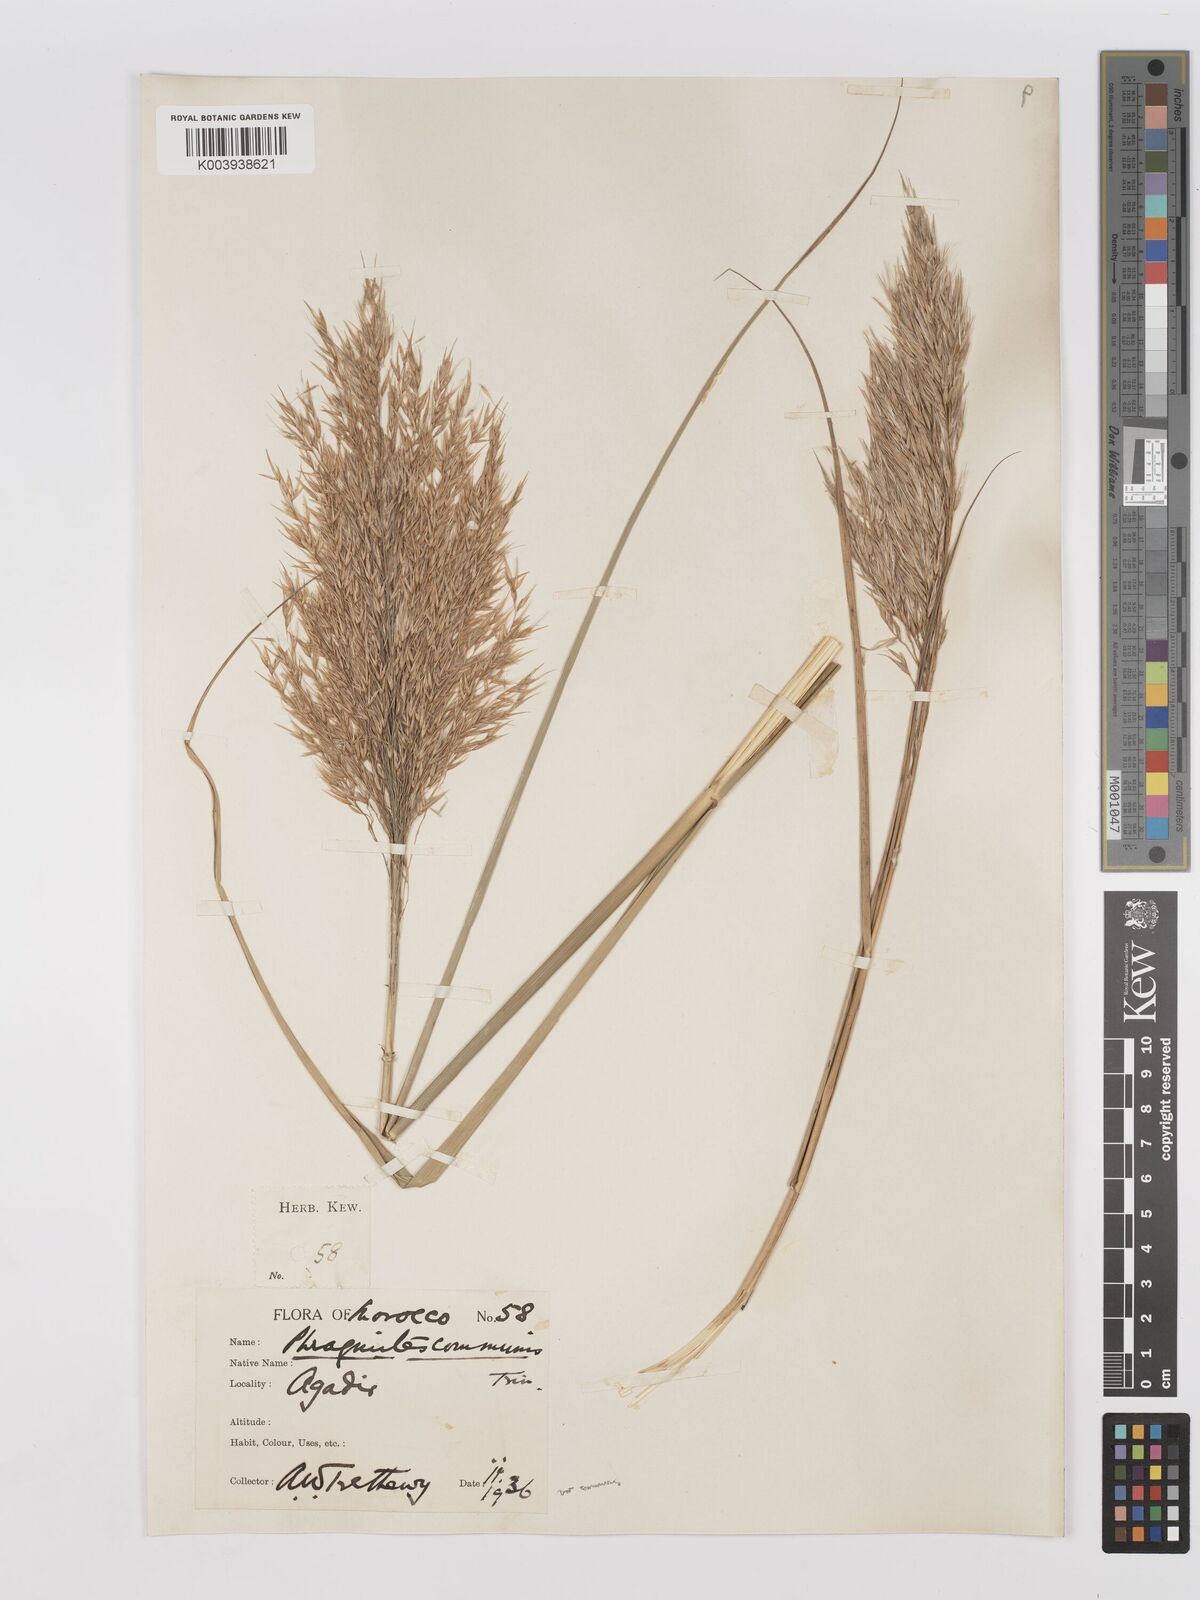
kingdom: Plantae
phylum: Tracheophyta
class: Liliopsida
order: Poales
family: Poaceae
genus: Phragmites
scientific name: Phragmites australis
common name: Common reed
